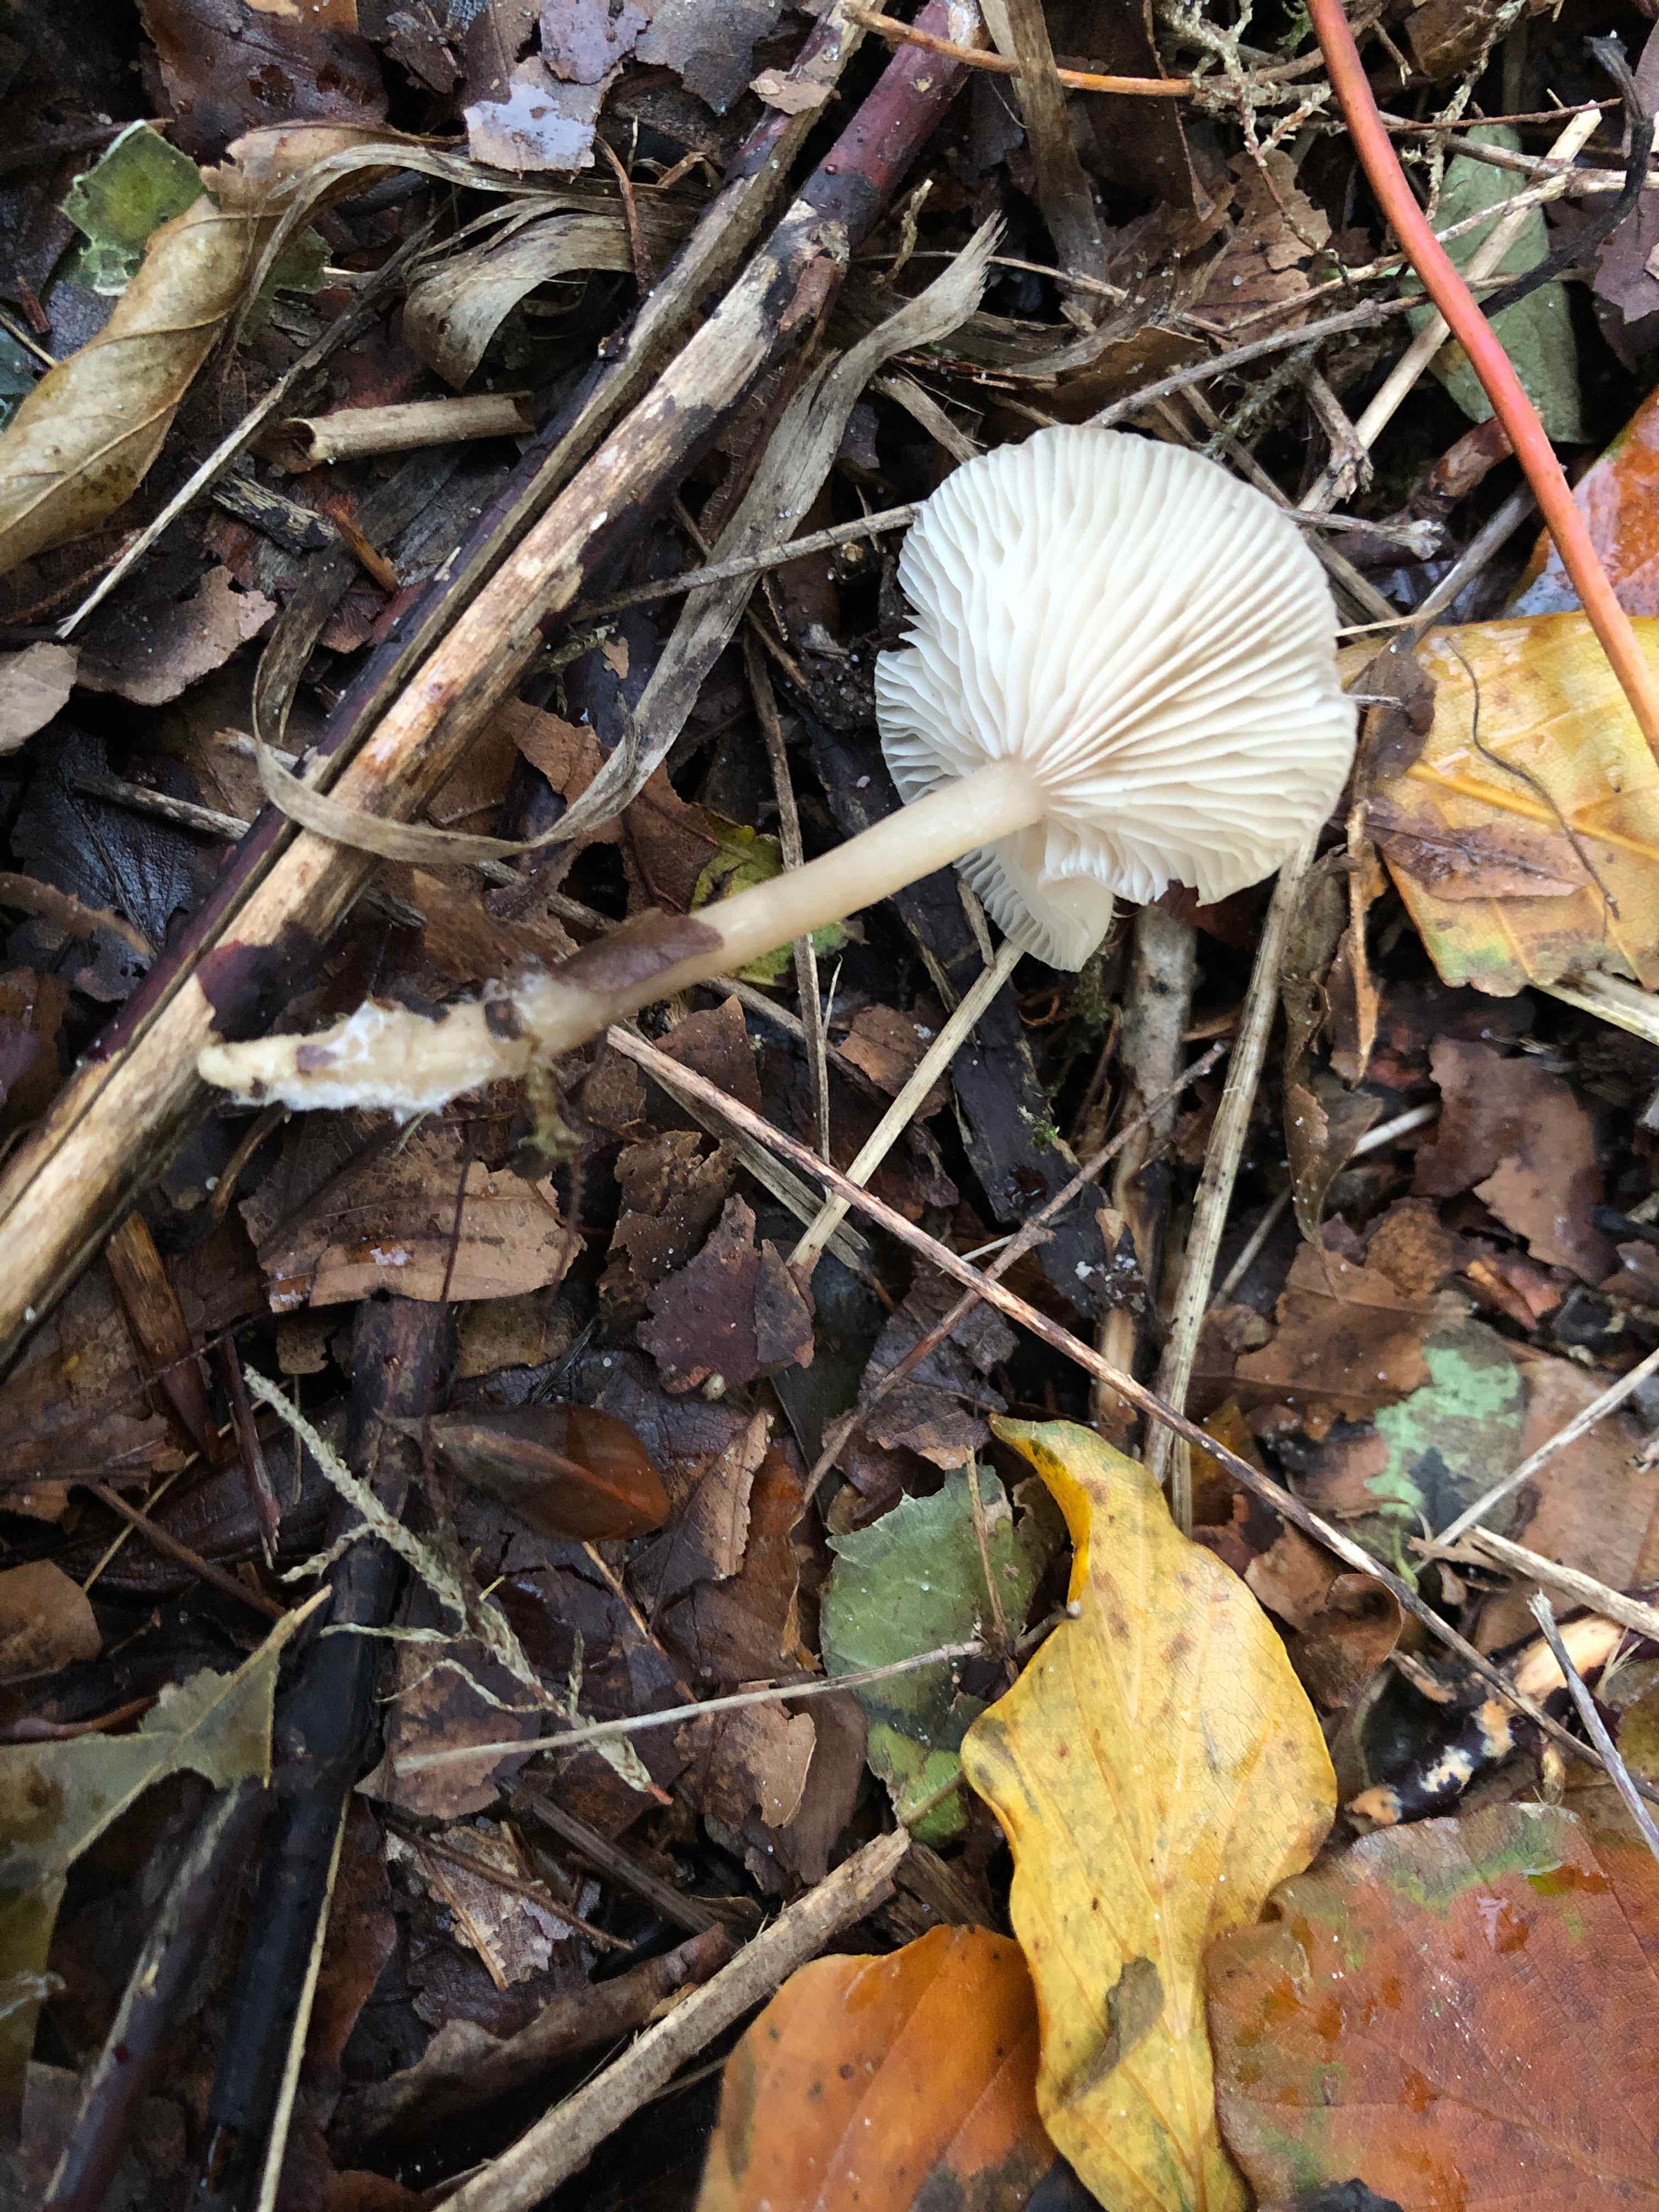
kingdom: Fungi
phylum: Basidiomycota
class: Agaricomycetes
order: Agaricales
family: Tricholomataceae
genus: Clitocybe
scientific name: Clitocybe fragrans
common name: vellugtende tragthat
